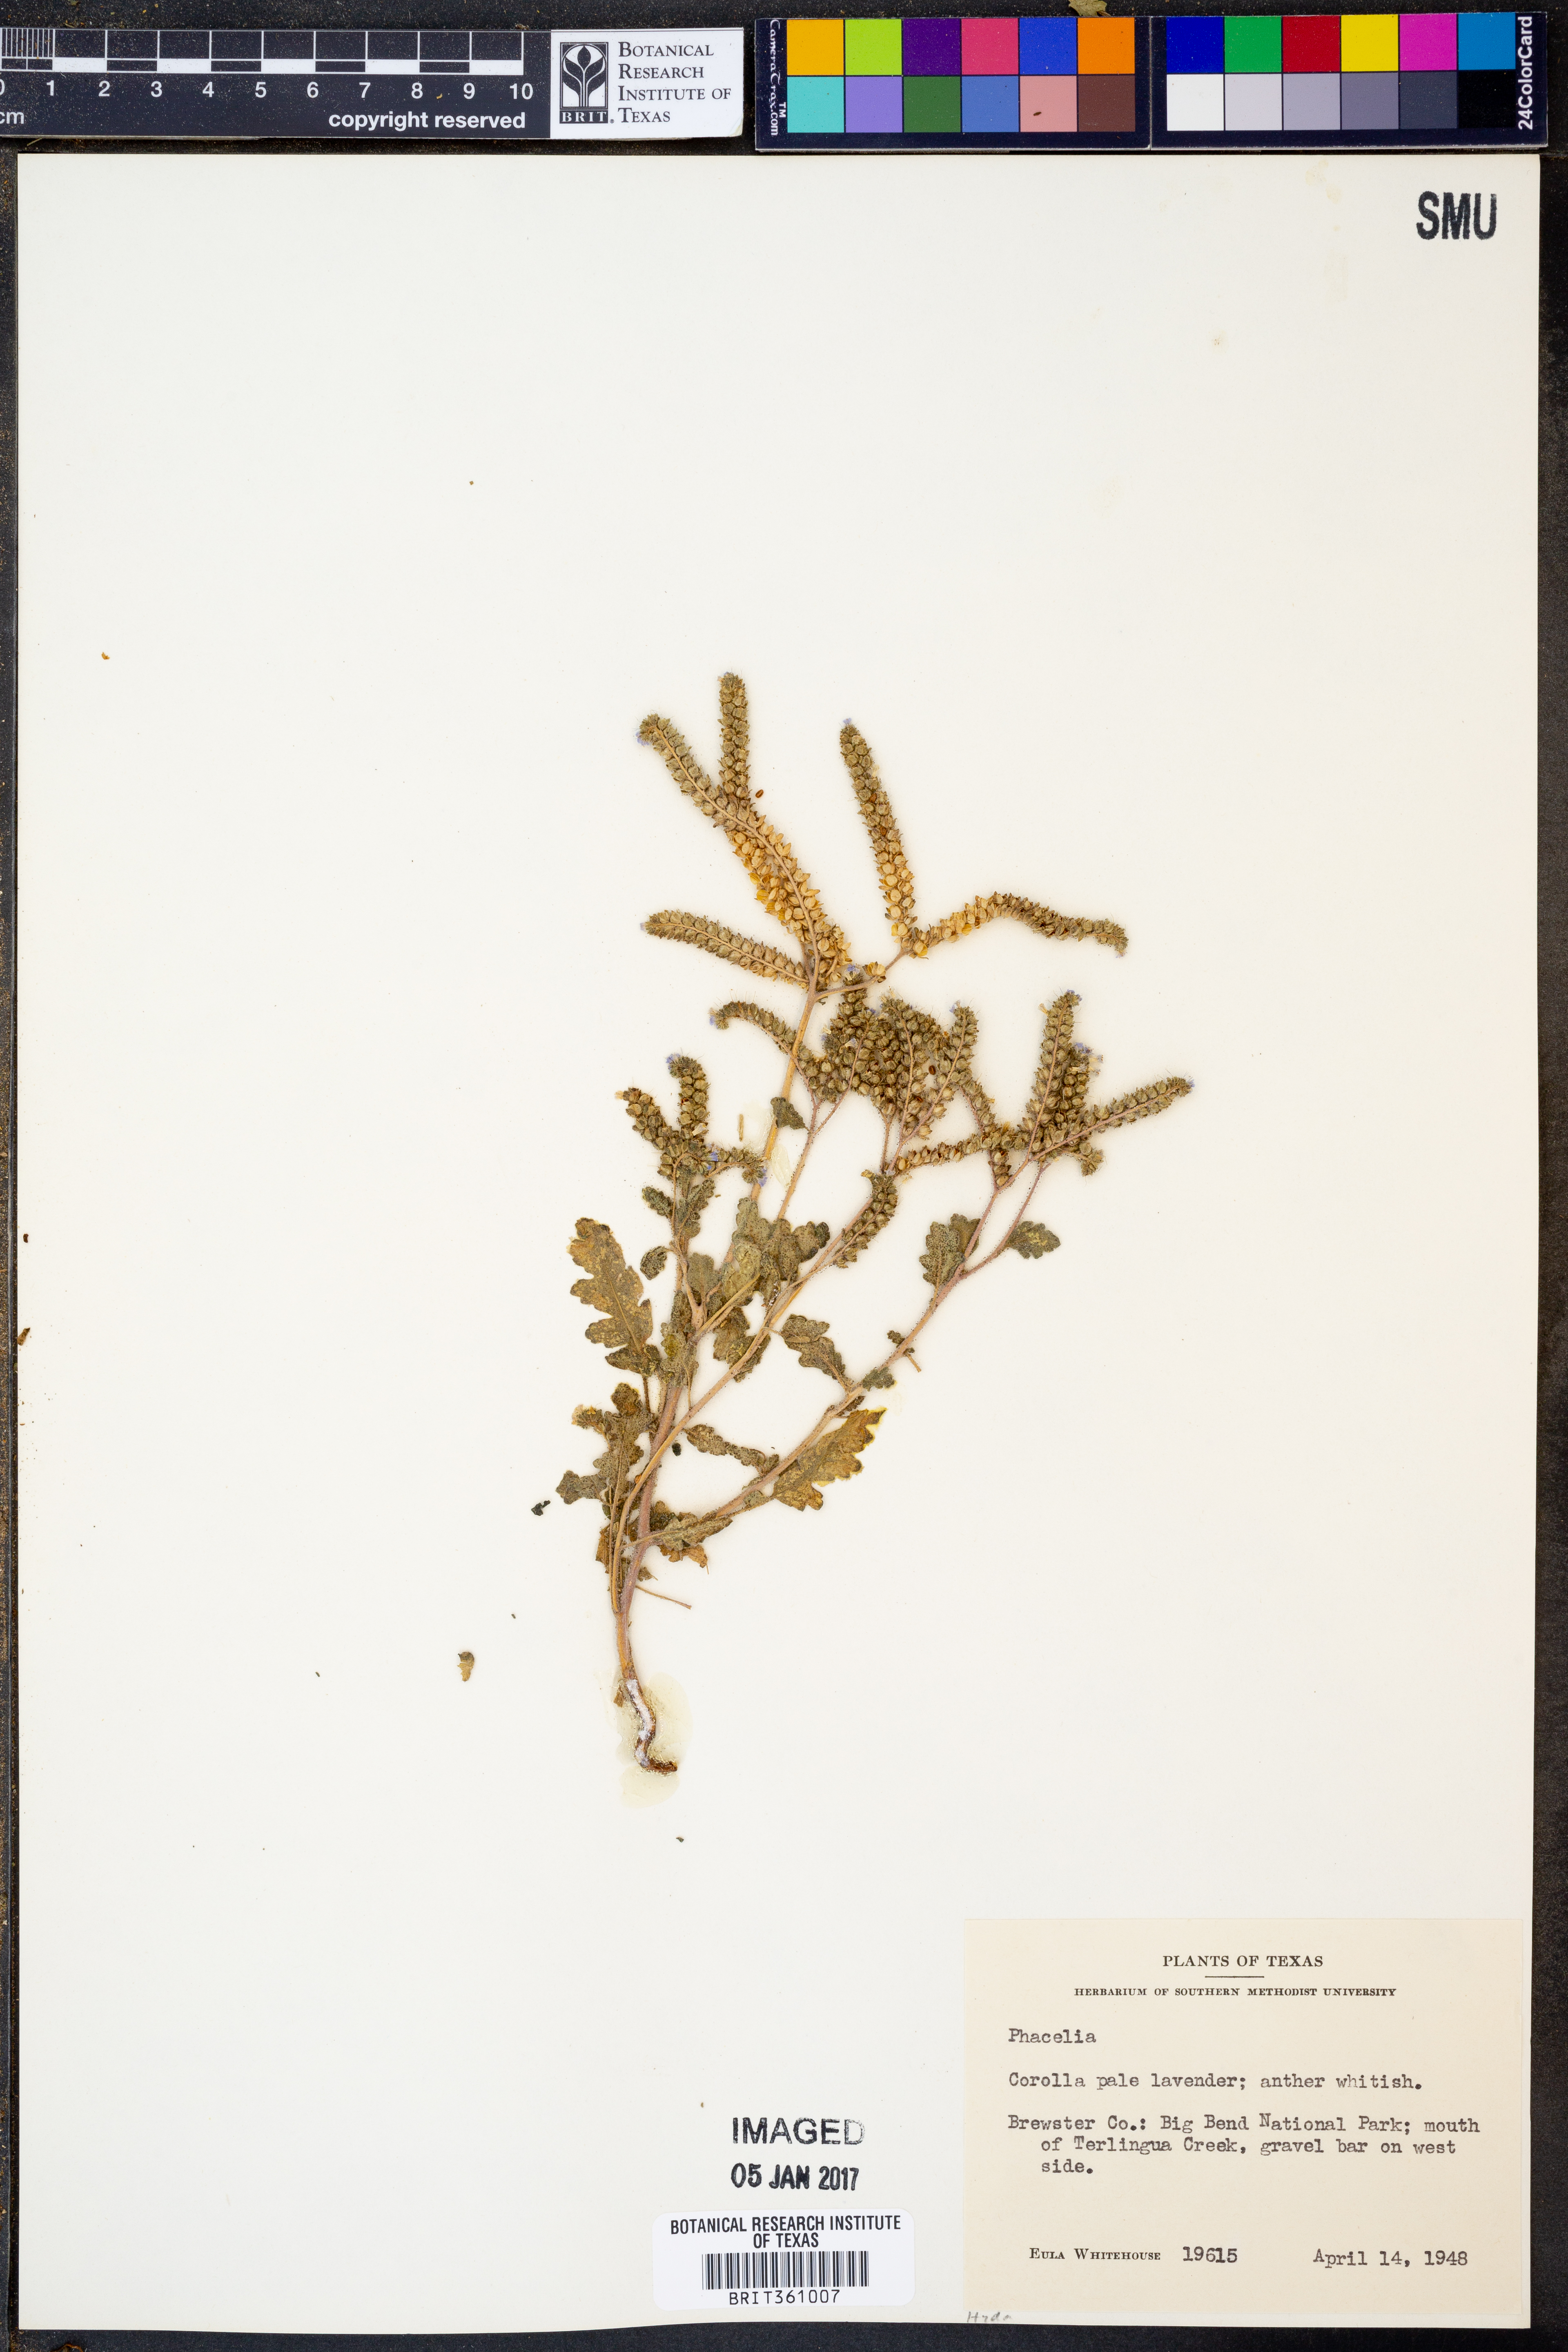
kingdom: Plantae
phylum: Tracheophyta
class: Magnoliopsida
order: Boraginales
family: Hydrophyllaceae
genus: Phacelia
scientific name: Phacelia
